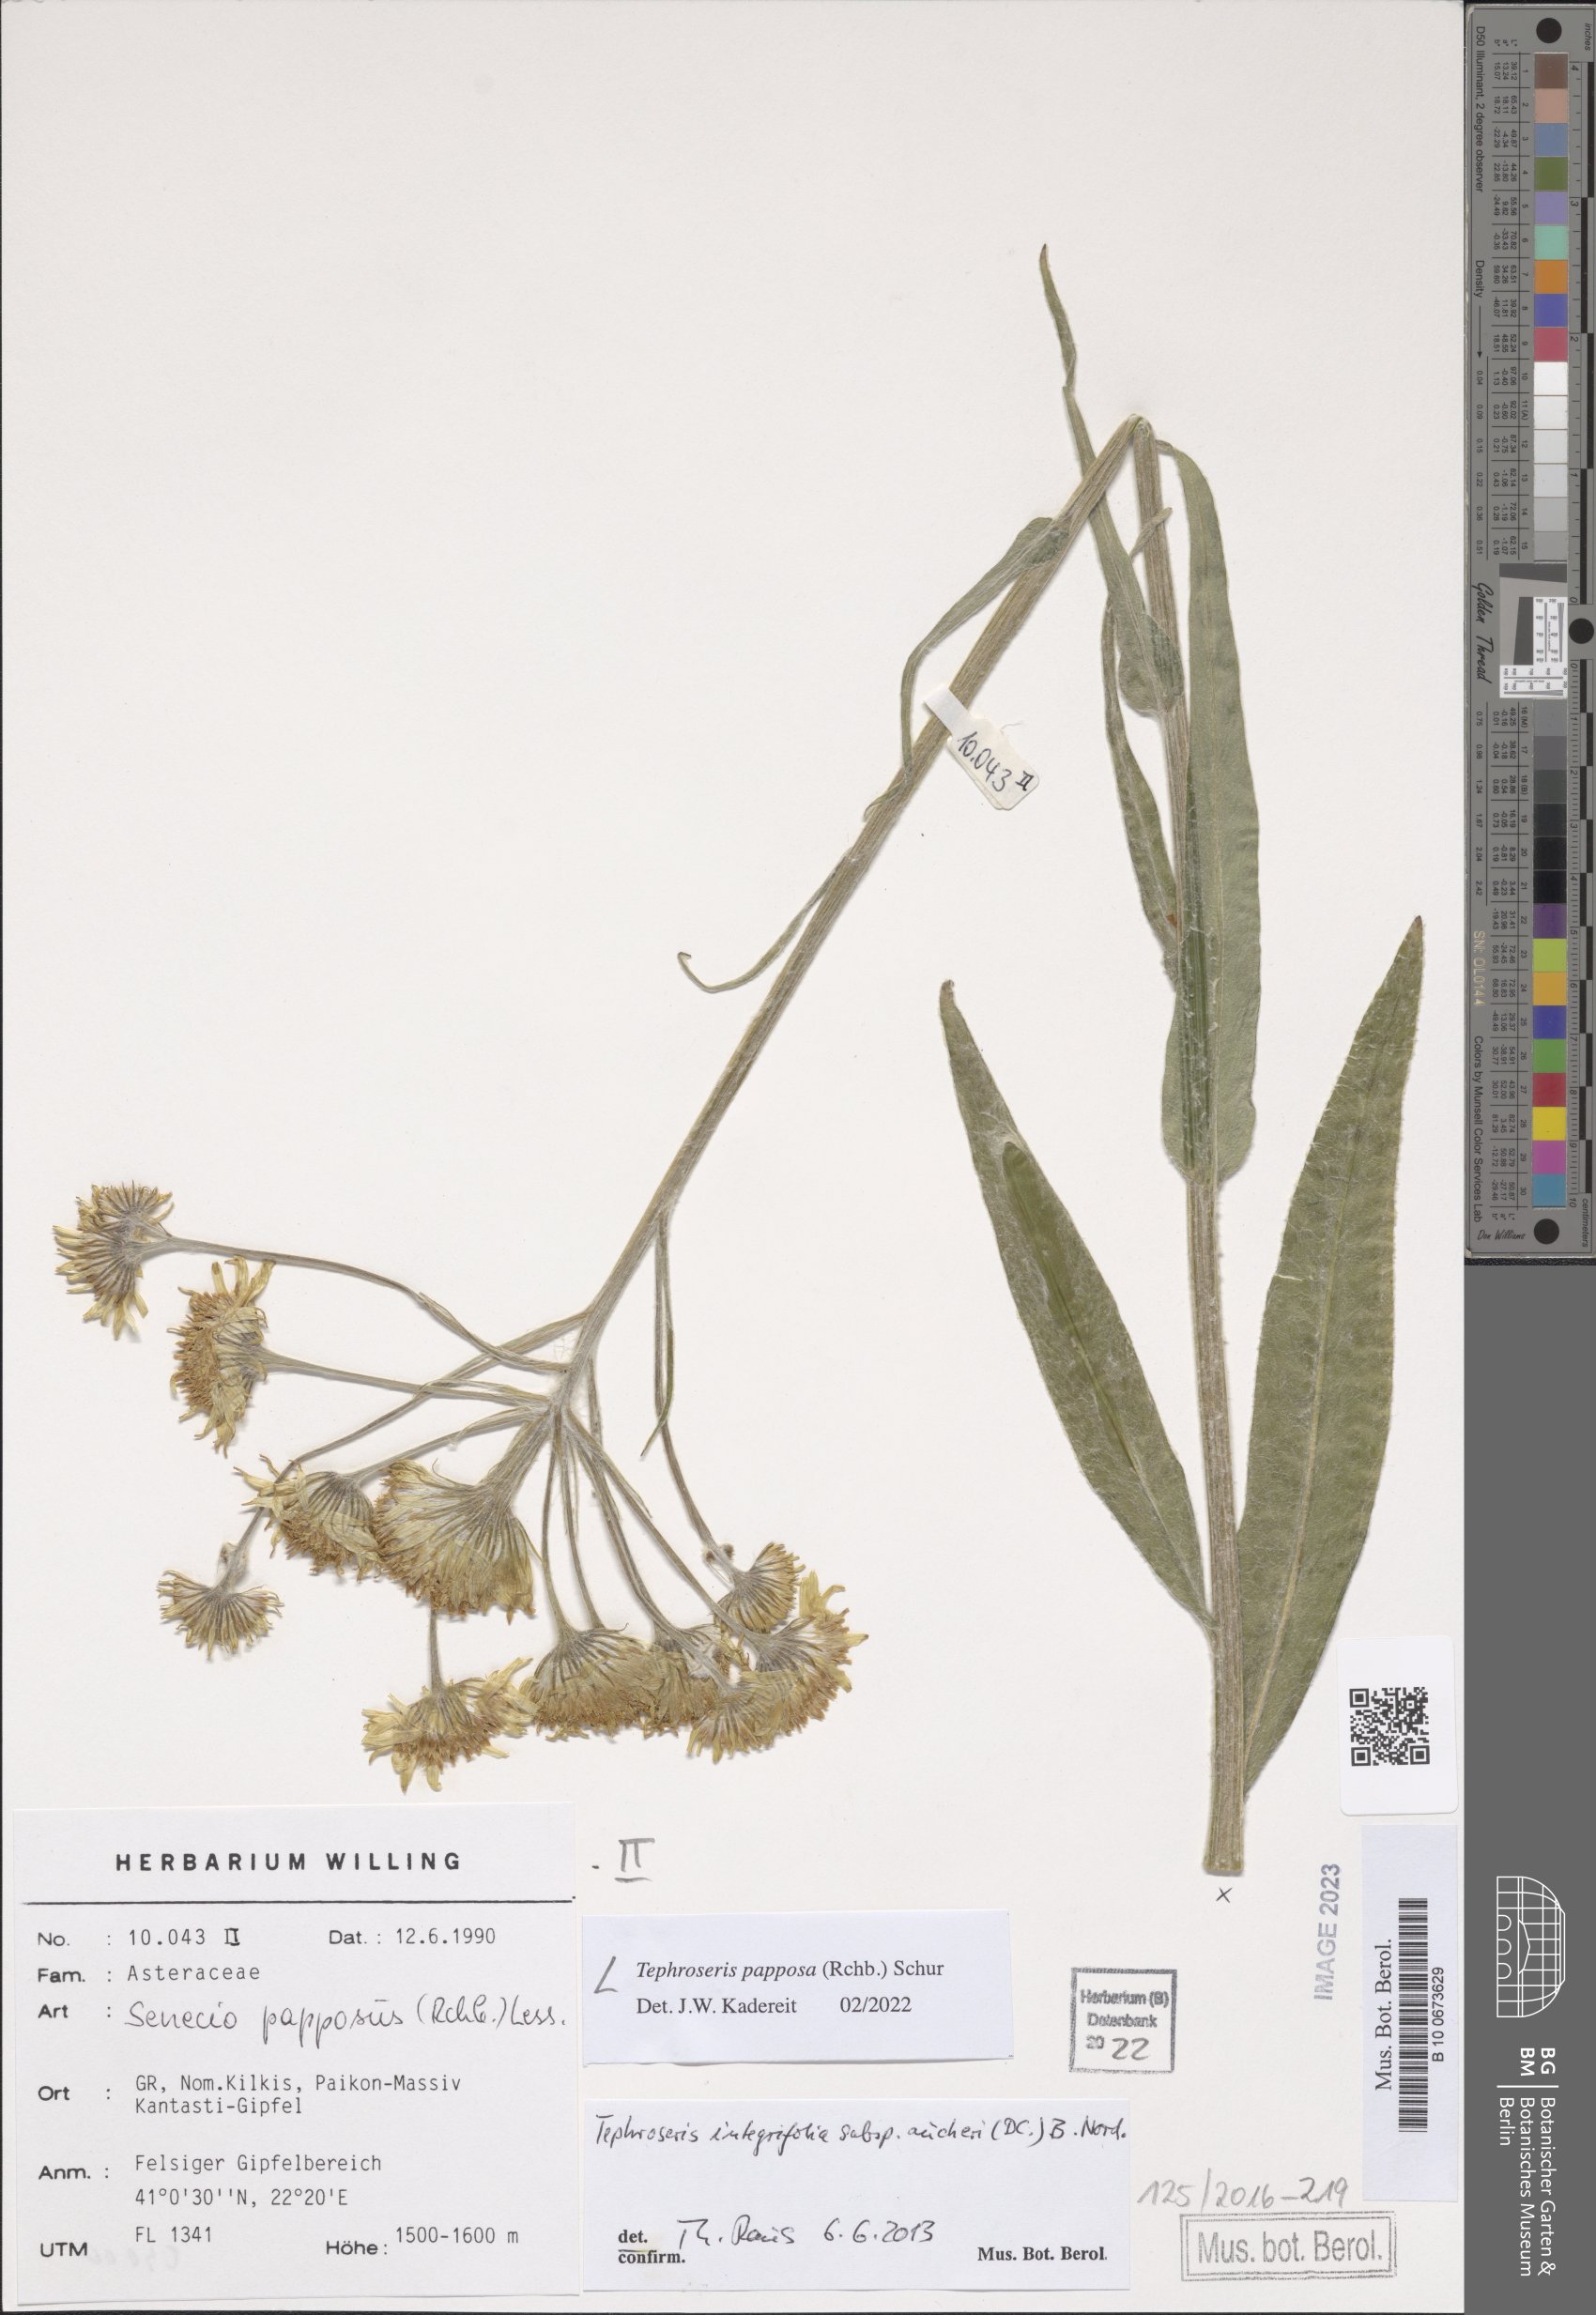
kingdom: Plantae
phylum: Tracheophyta
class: Magnoliopsida
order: Asterales
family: Asteraceae
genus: Tephroseris
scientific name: Tephroseris papposa
